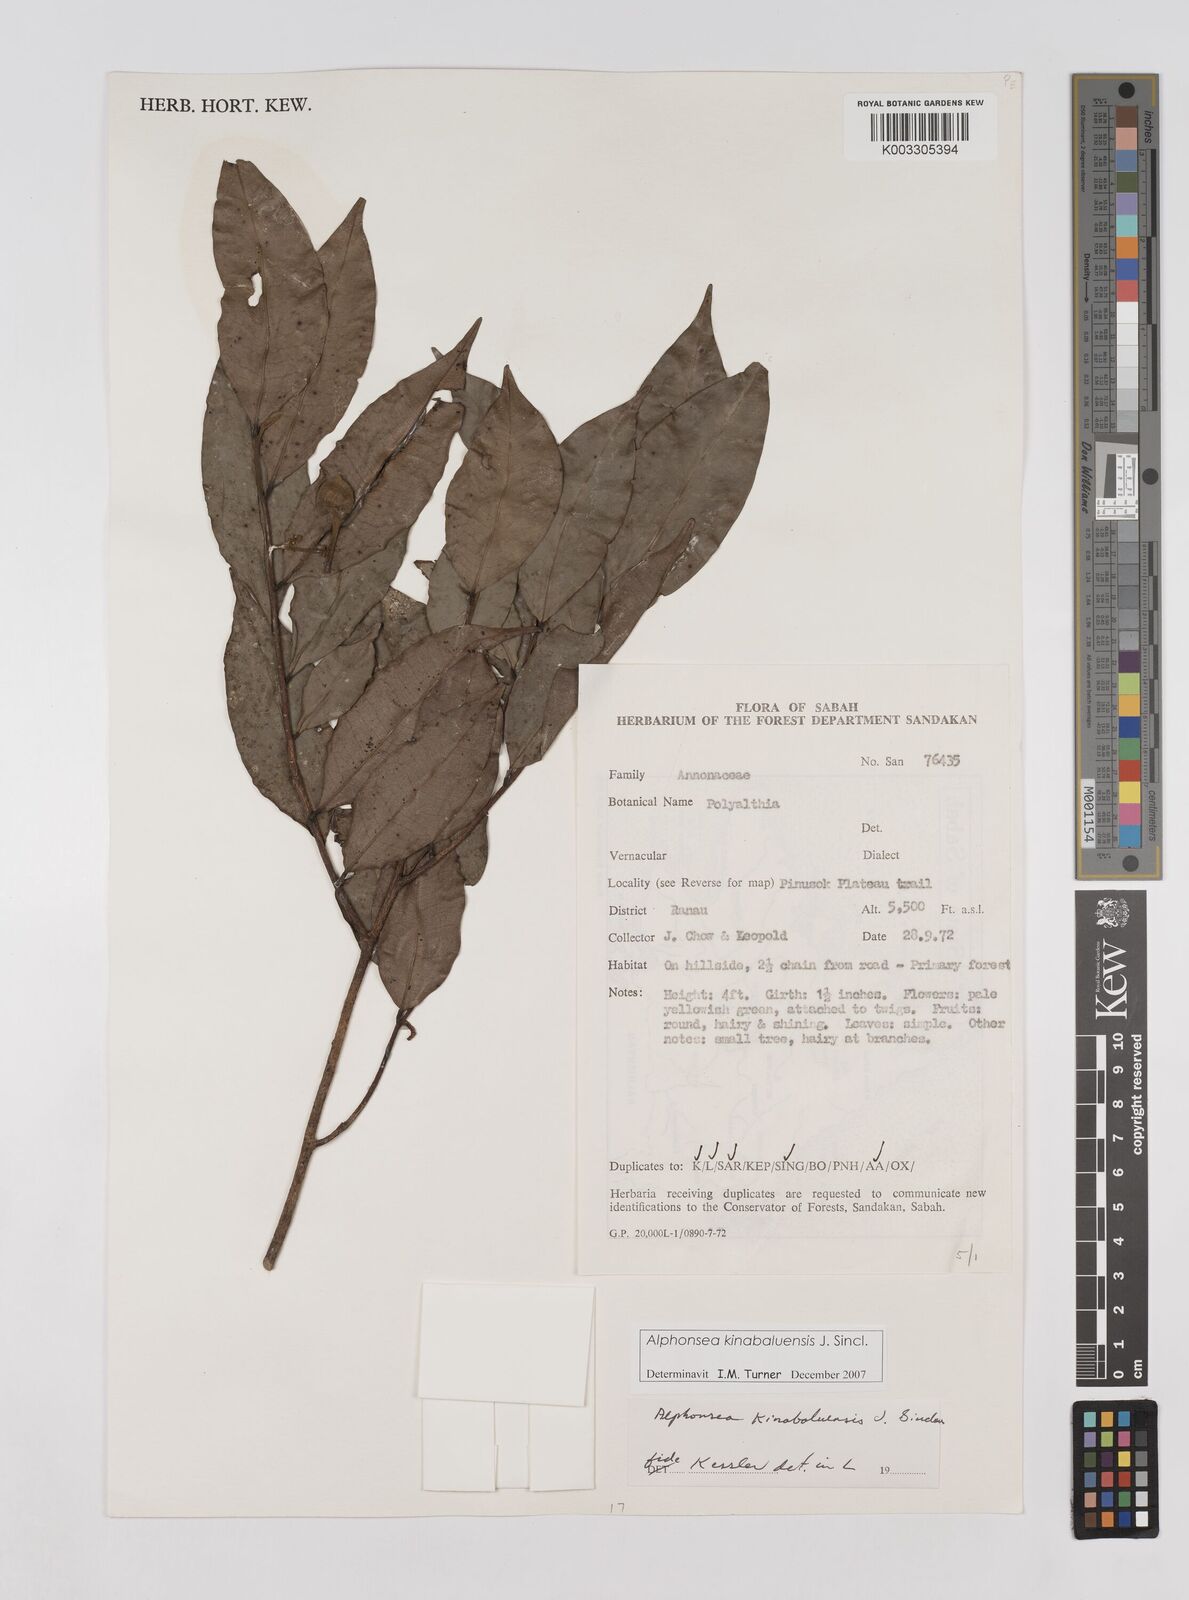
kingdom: Plantae
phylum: Tracheophyta
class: Magnoliopsida
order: Magnoliales
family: Annonaceae
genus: Alphonsea
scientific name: Alphonsea kinabaluensis
